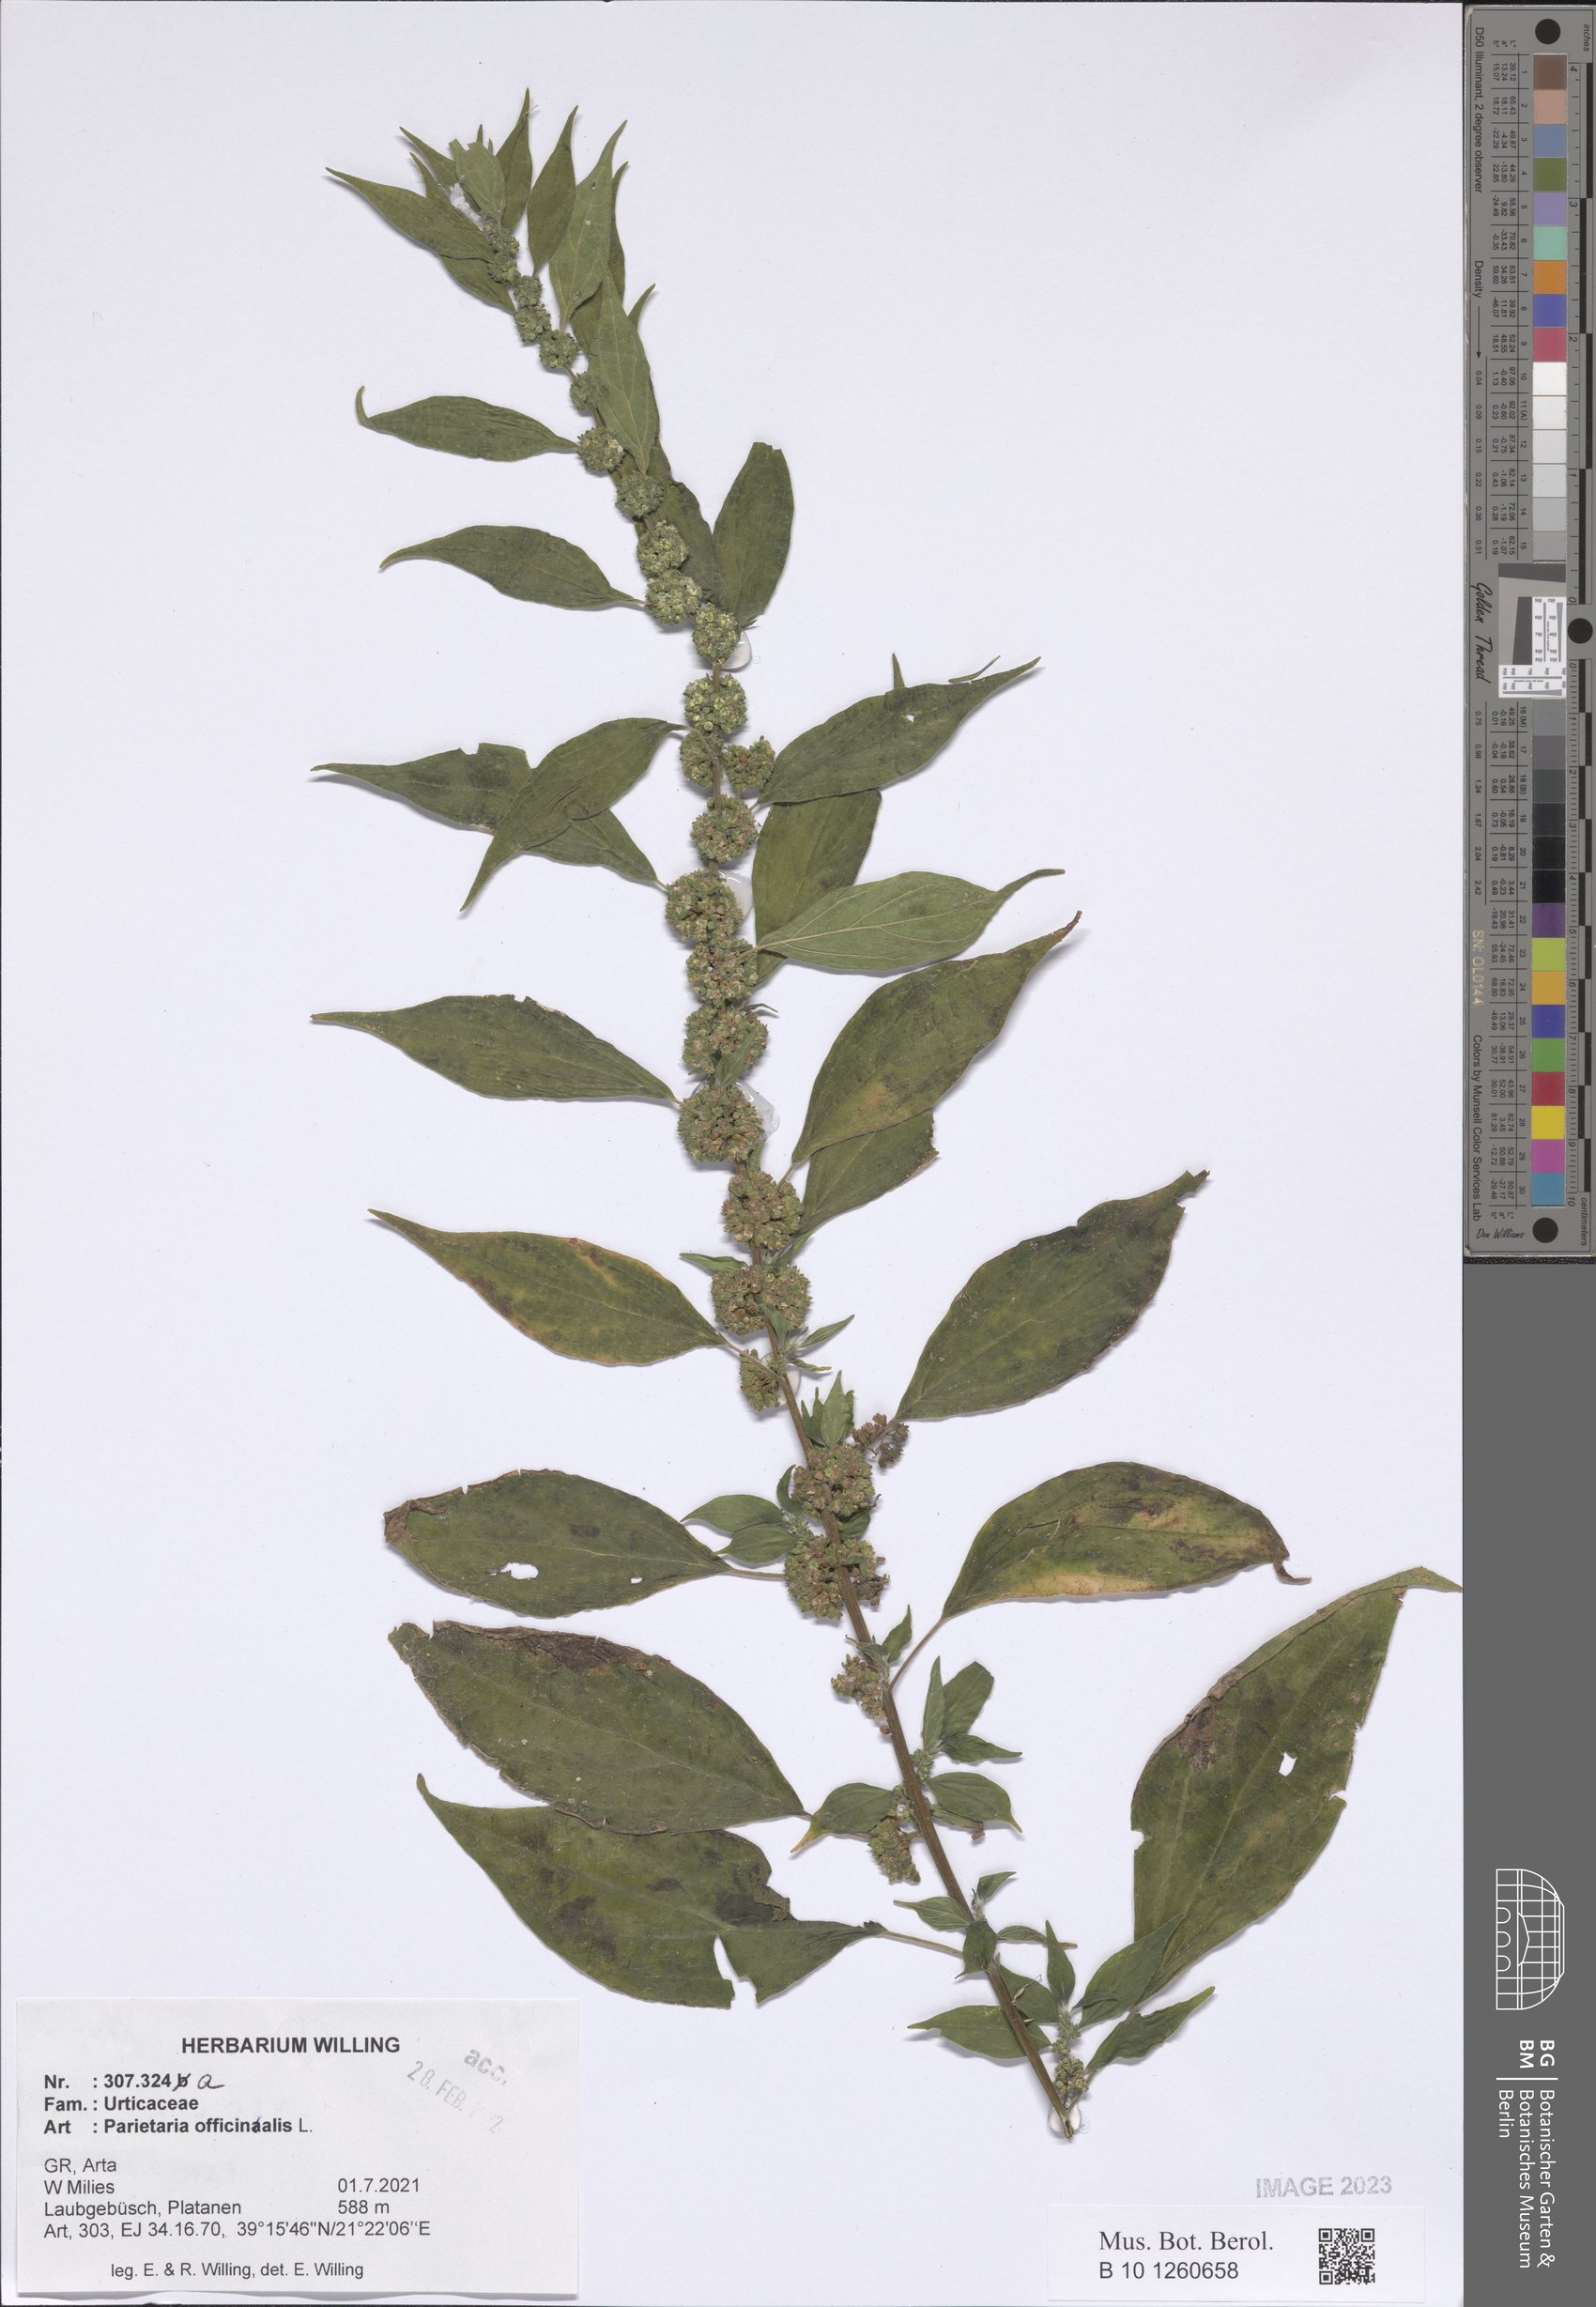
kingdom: Plantae
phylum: Tracheophyta
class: Magnoliopsida
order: Rosales
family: Urticaceae
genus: Parietaria
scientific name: Parietaria officinalis
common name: Eastern pellitory-of-the-wall
